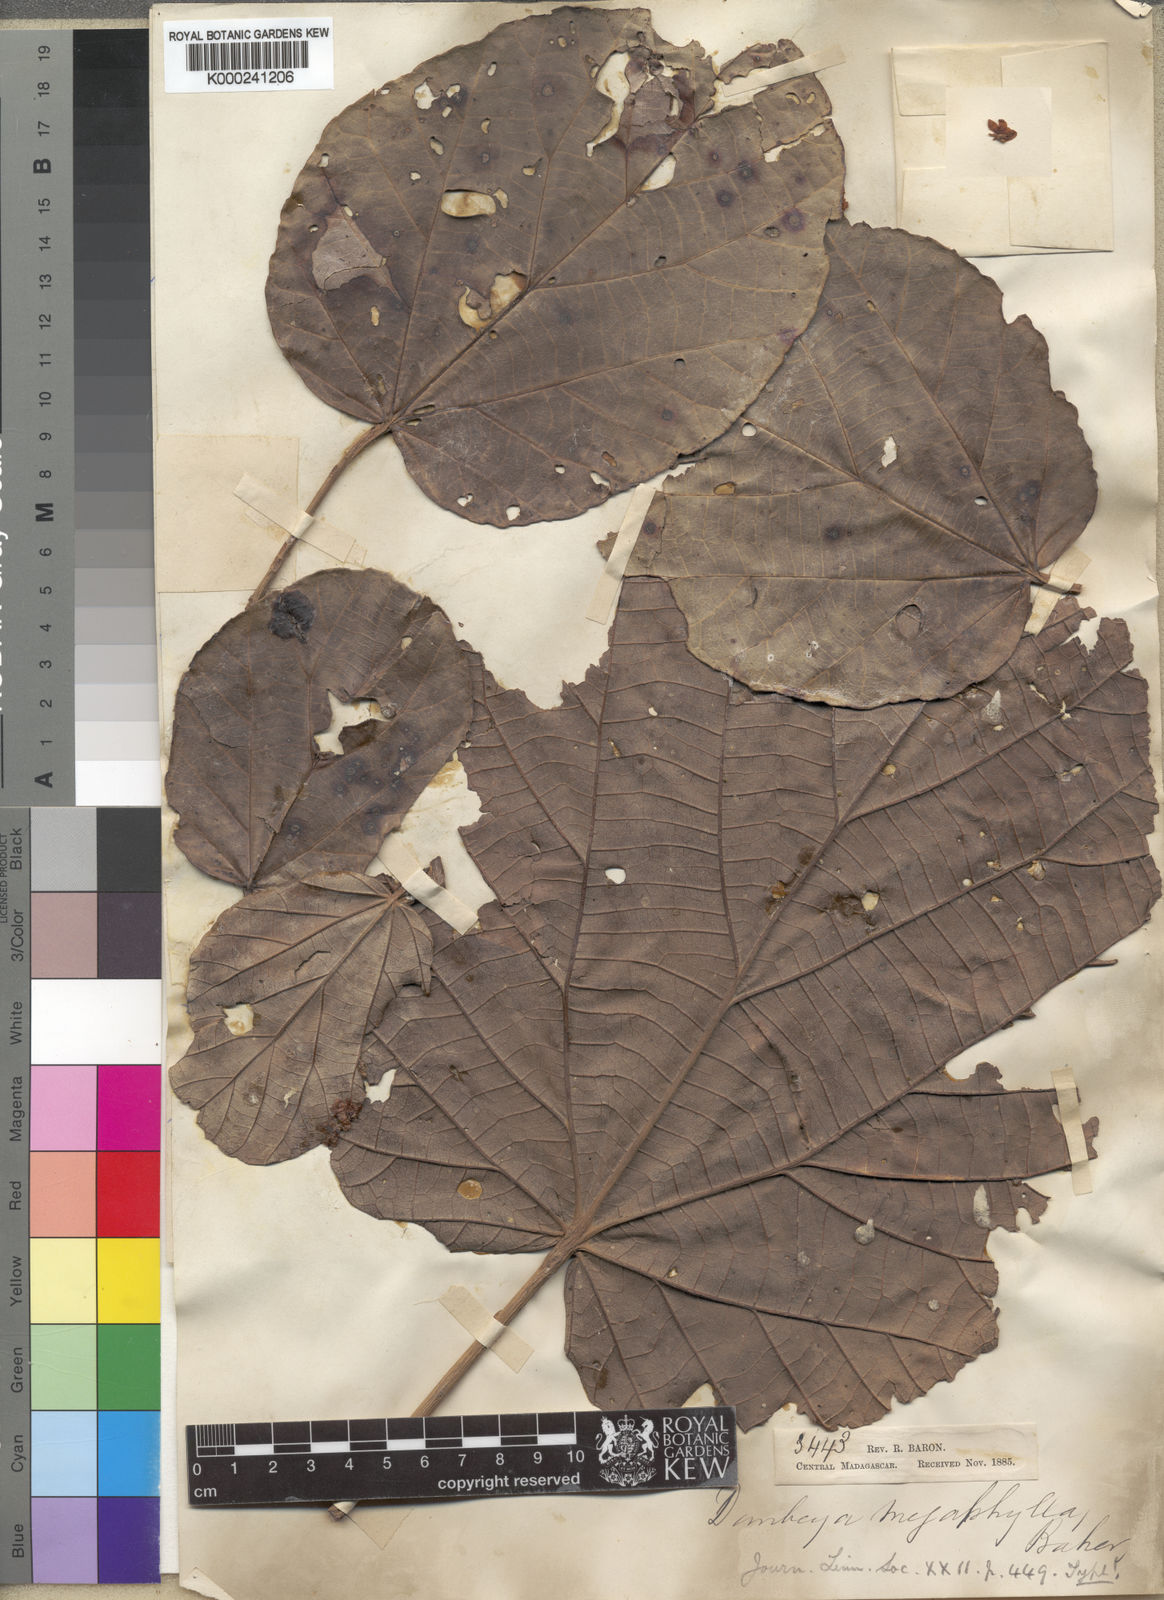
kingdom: Plantae
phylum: Tracheophyta
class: Magnoliopsida
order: Malvales
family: Malvaceae
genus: Dombeya
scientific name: Dombeya lucida
